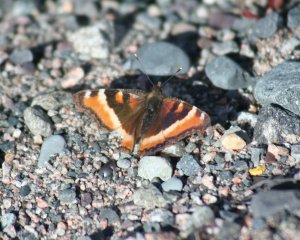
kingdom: Animalia
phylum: Arthropoda
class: Insecta
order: Lepidoptera
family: Nymphalidae
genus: Aglais
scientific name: Aglais milberti
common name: Milbert's Tortoiseshell
